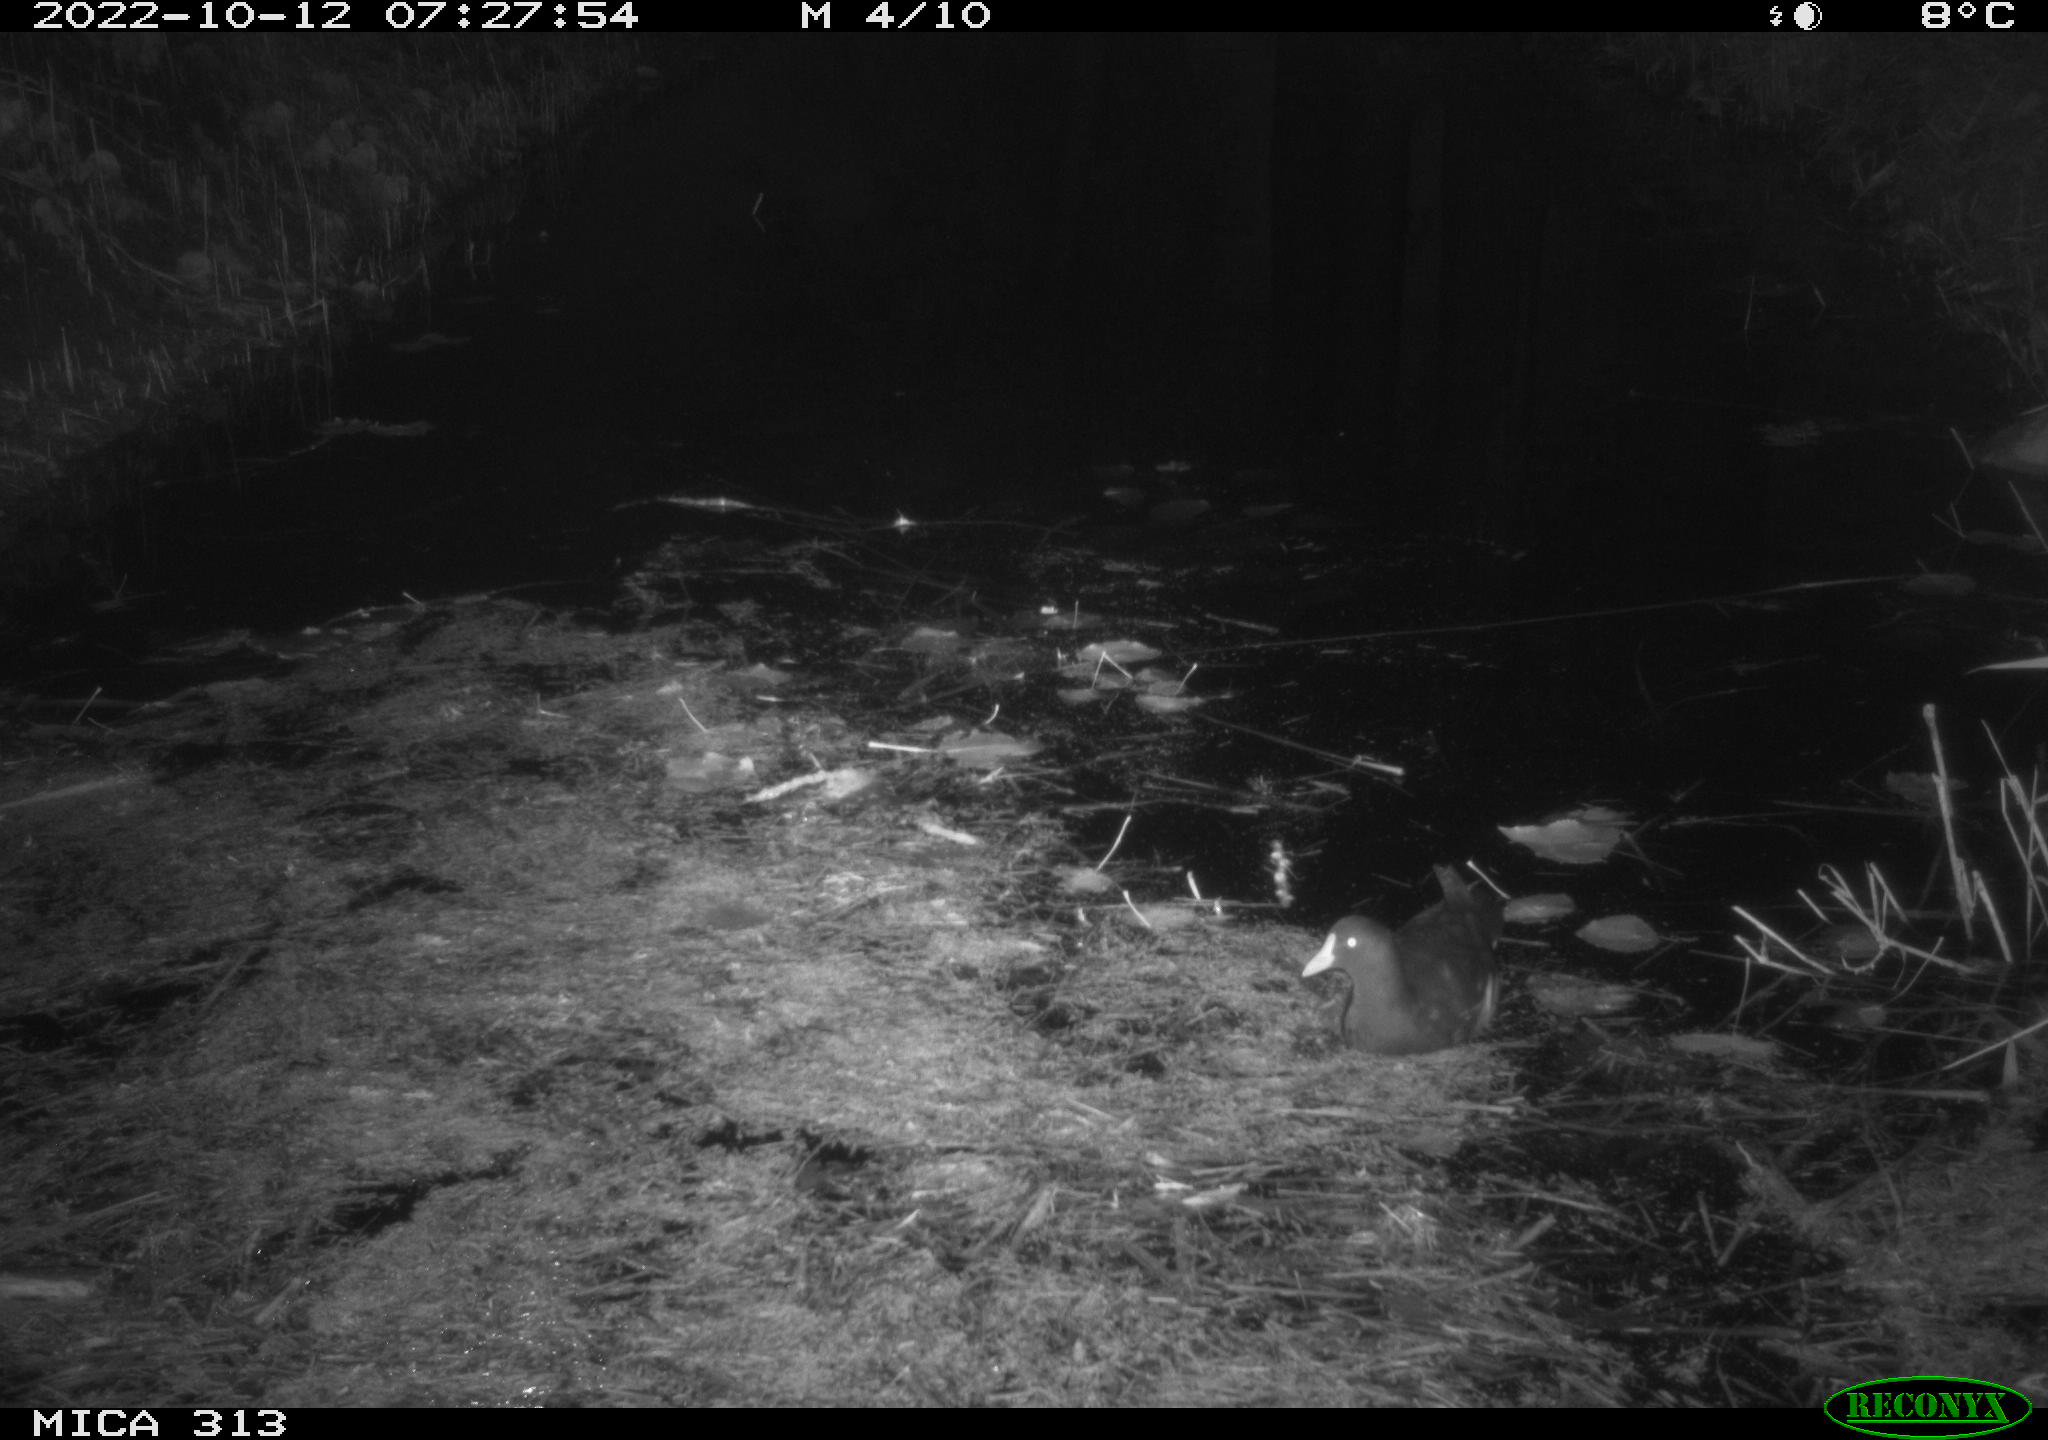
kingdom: Animalia
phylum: Chordata
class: Aves
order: Gruiformes
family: Rallidae
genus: Gallinula
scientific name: Gallinula chloropus
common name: Common moorhen
